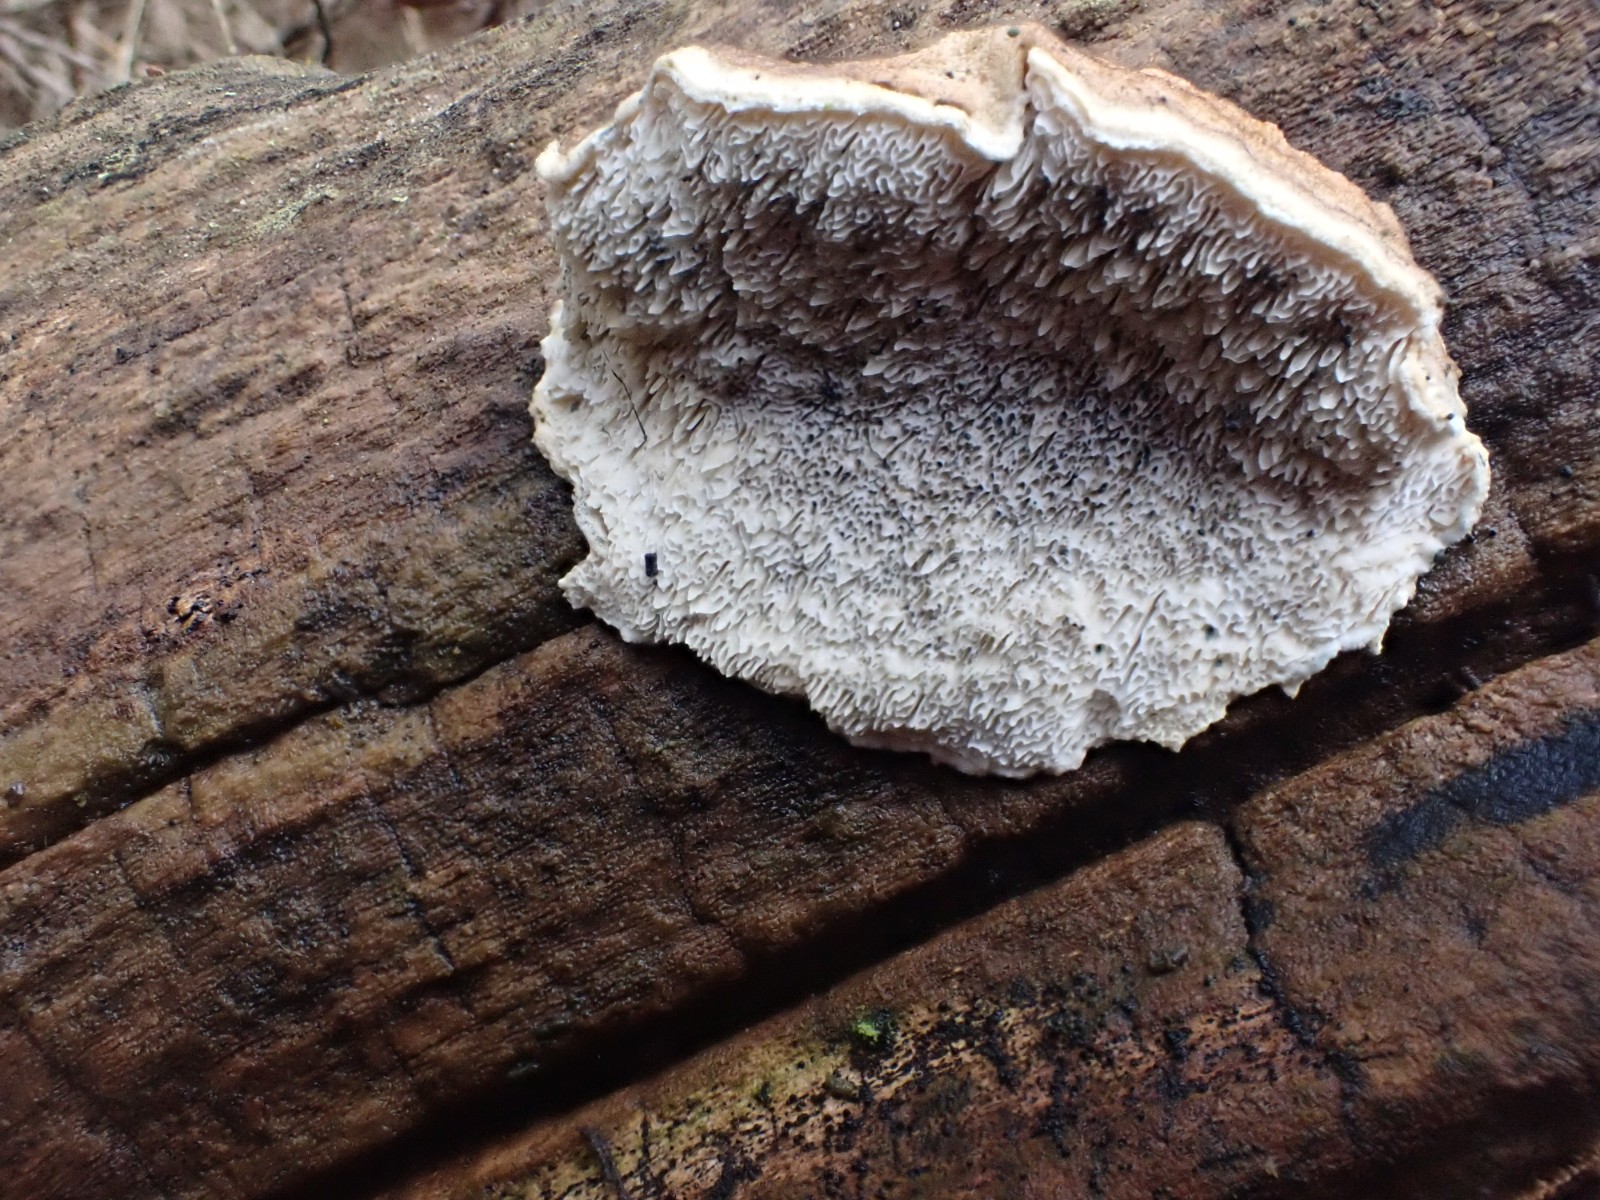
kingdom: Fungi
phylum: Basidiomycota
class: Agaricomycetes
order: Polyporales
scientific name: Polyporales
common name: poresvampordenen
